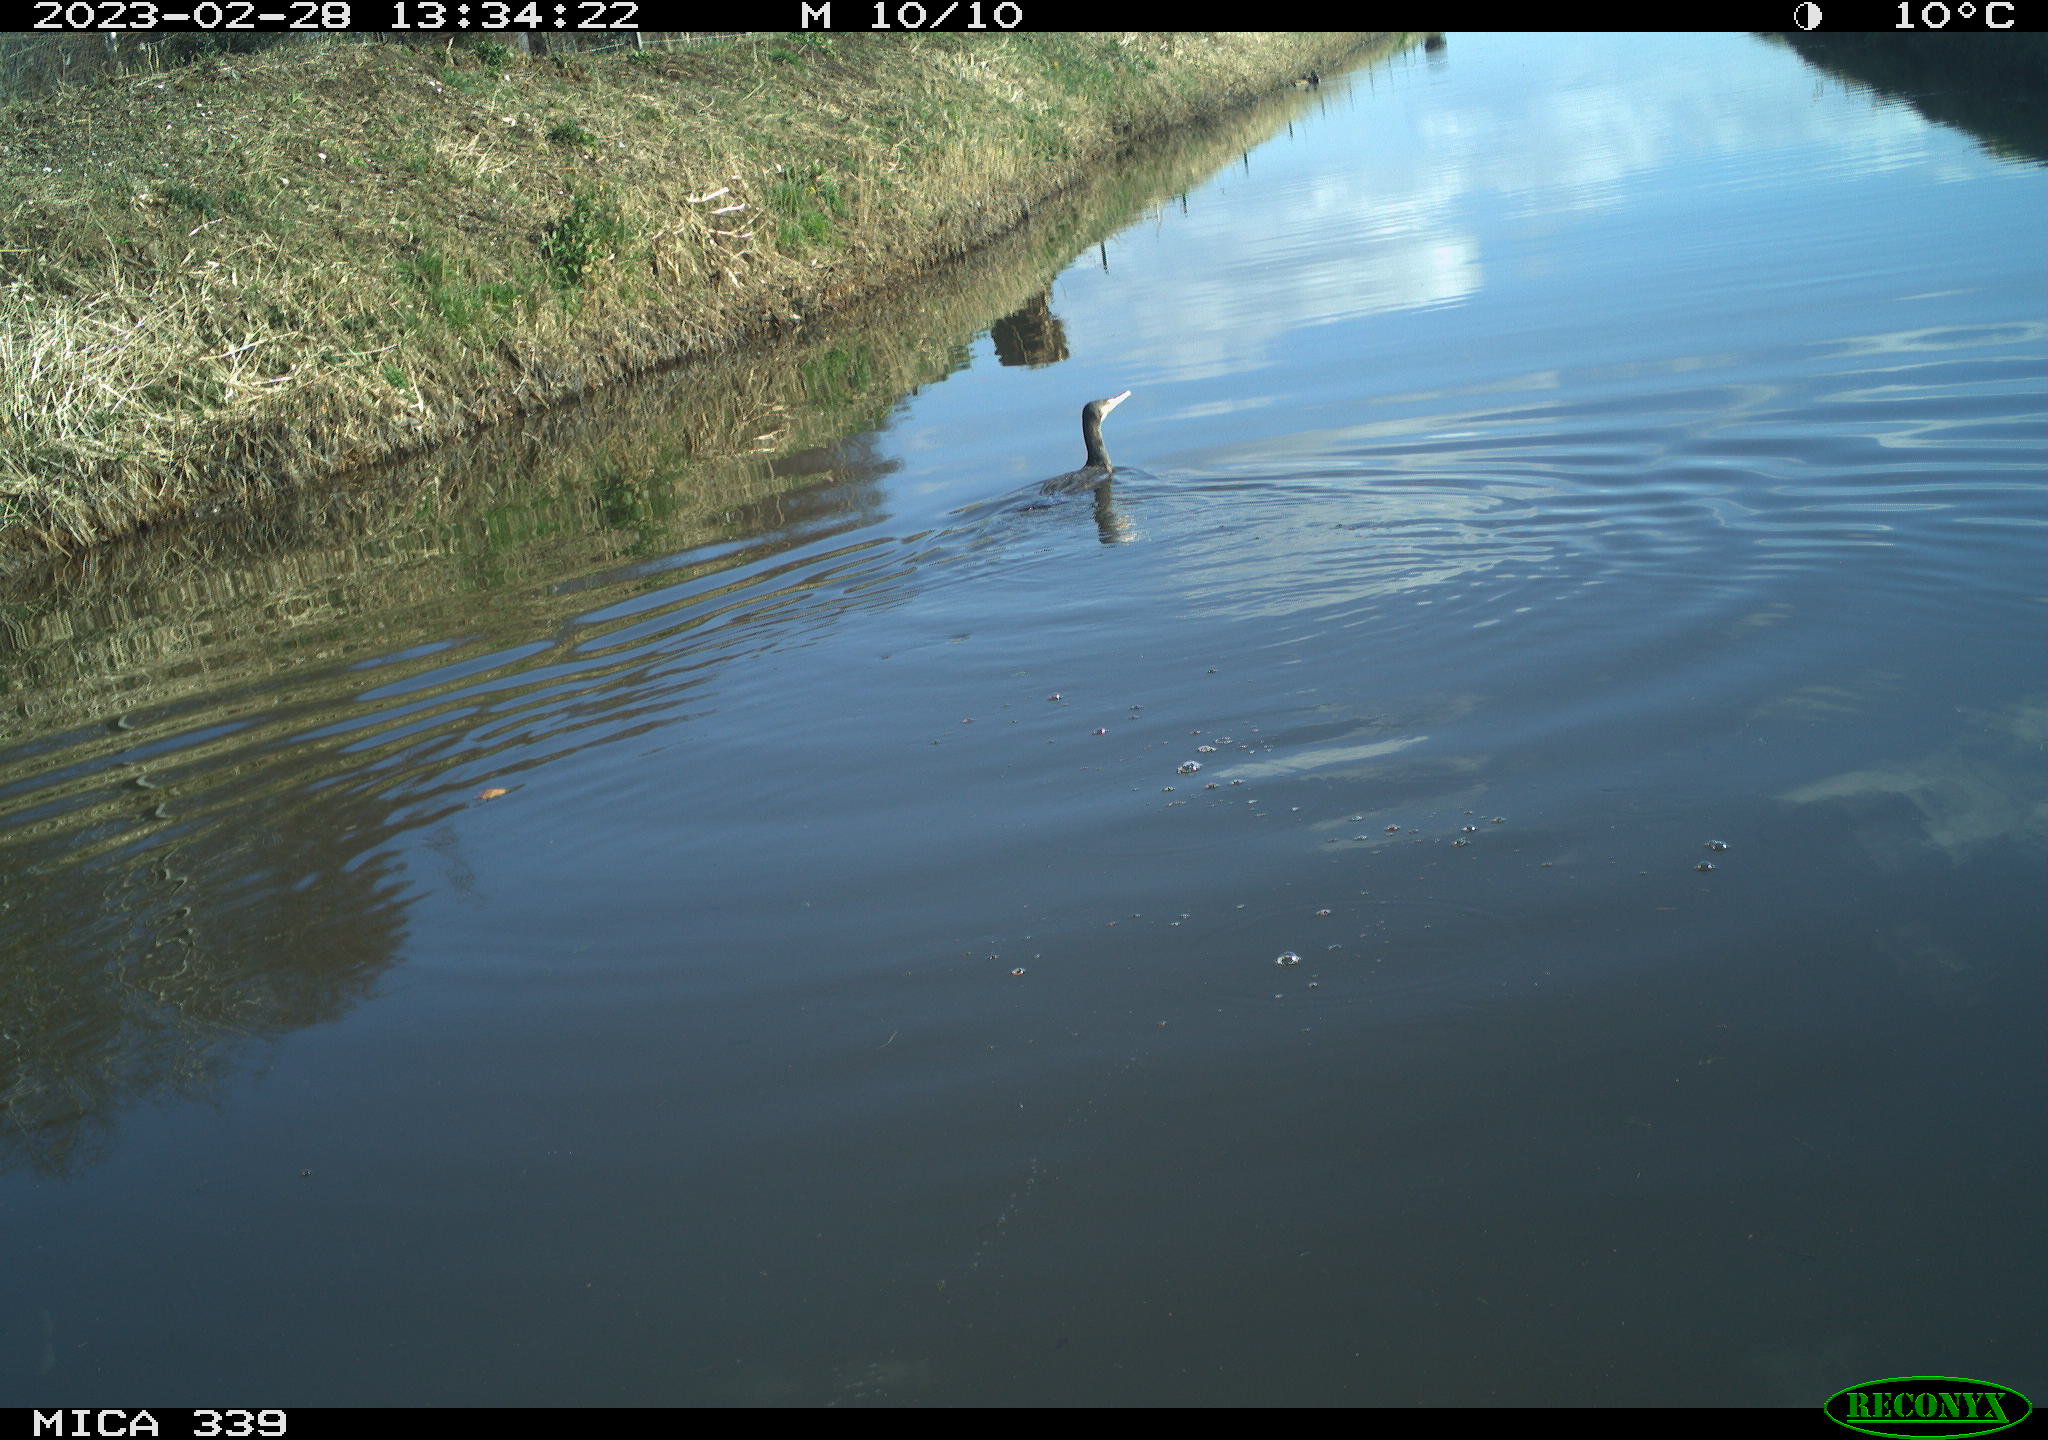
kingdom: Animalia
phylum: Chordata
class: Aves
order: Suliformes
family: Phalacrocoracidae
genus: Phalacrocorax
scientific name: Phalacrocorax carbo
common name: Great cormorant
